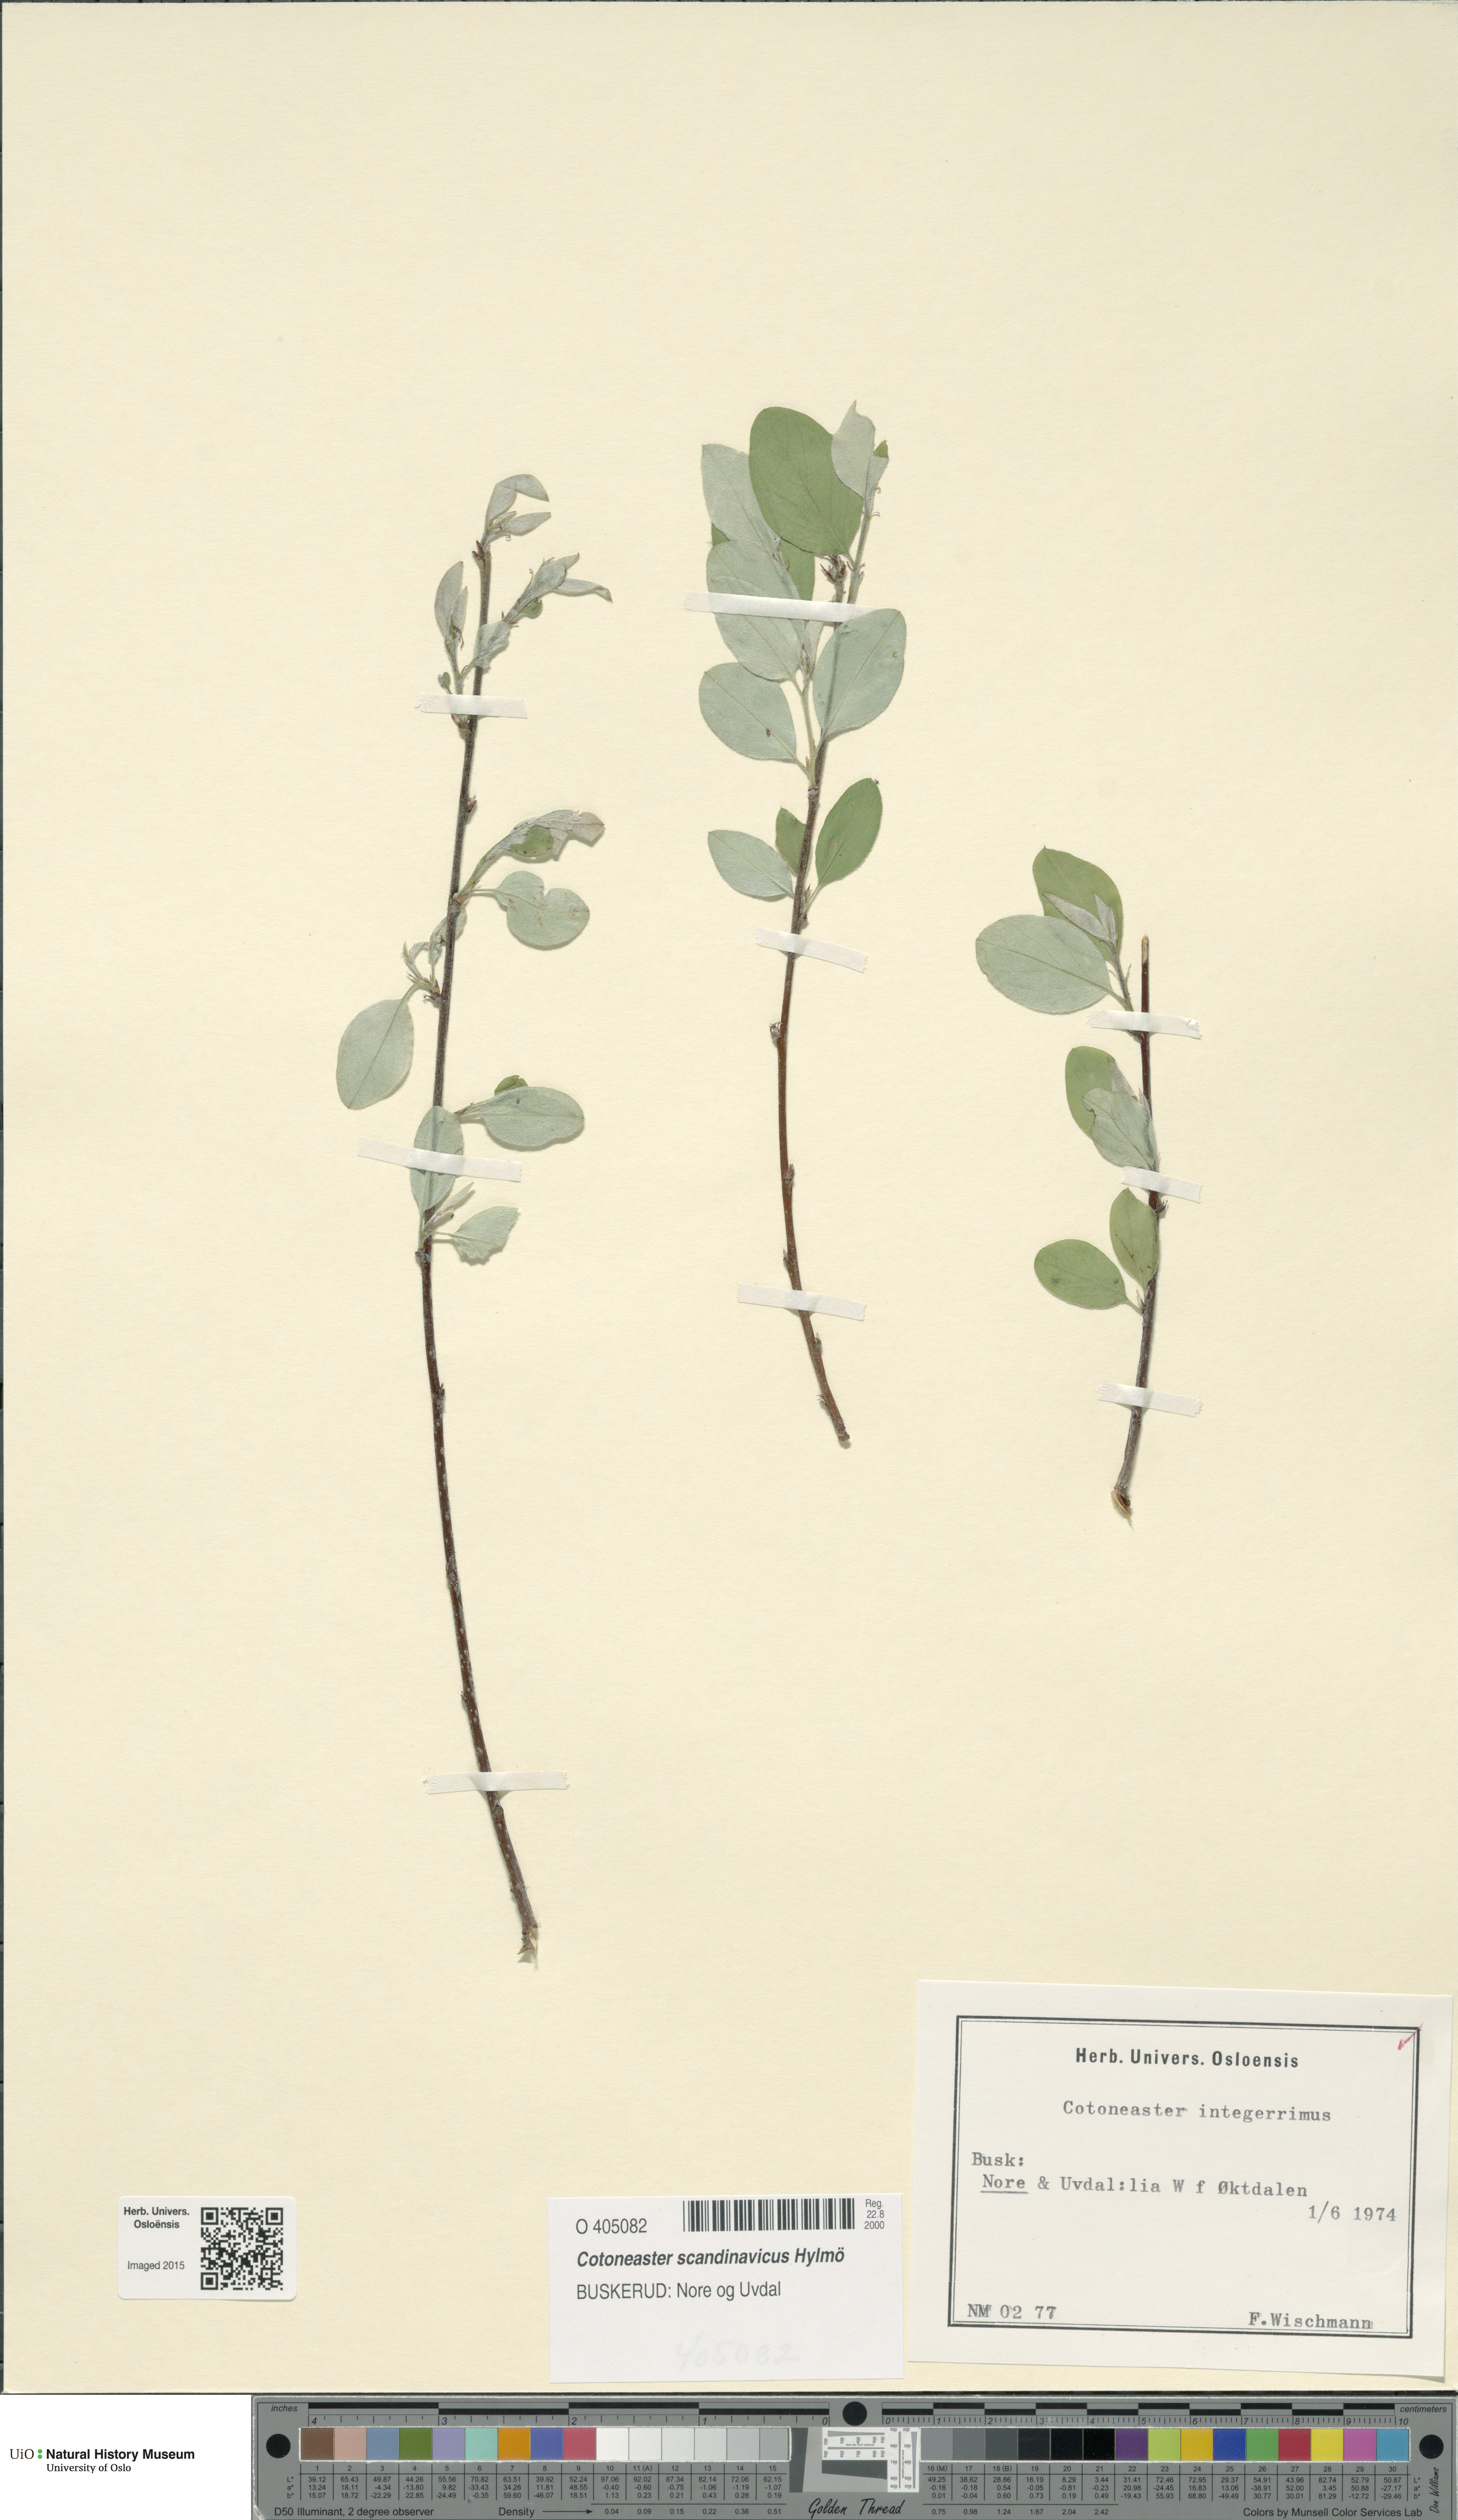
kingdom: Plantae
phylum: Tracheophyta
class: Magnoliopsida
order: Rosales
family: Rosaceae
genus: Cotoneaster
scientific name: Cotoneaster integerrimus
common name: Wild cotoneaster
